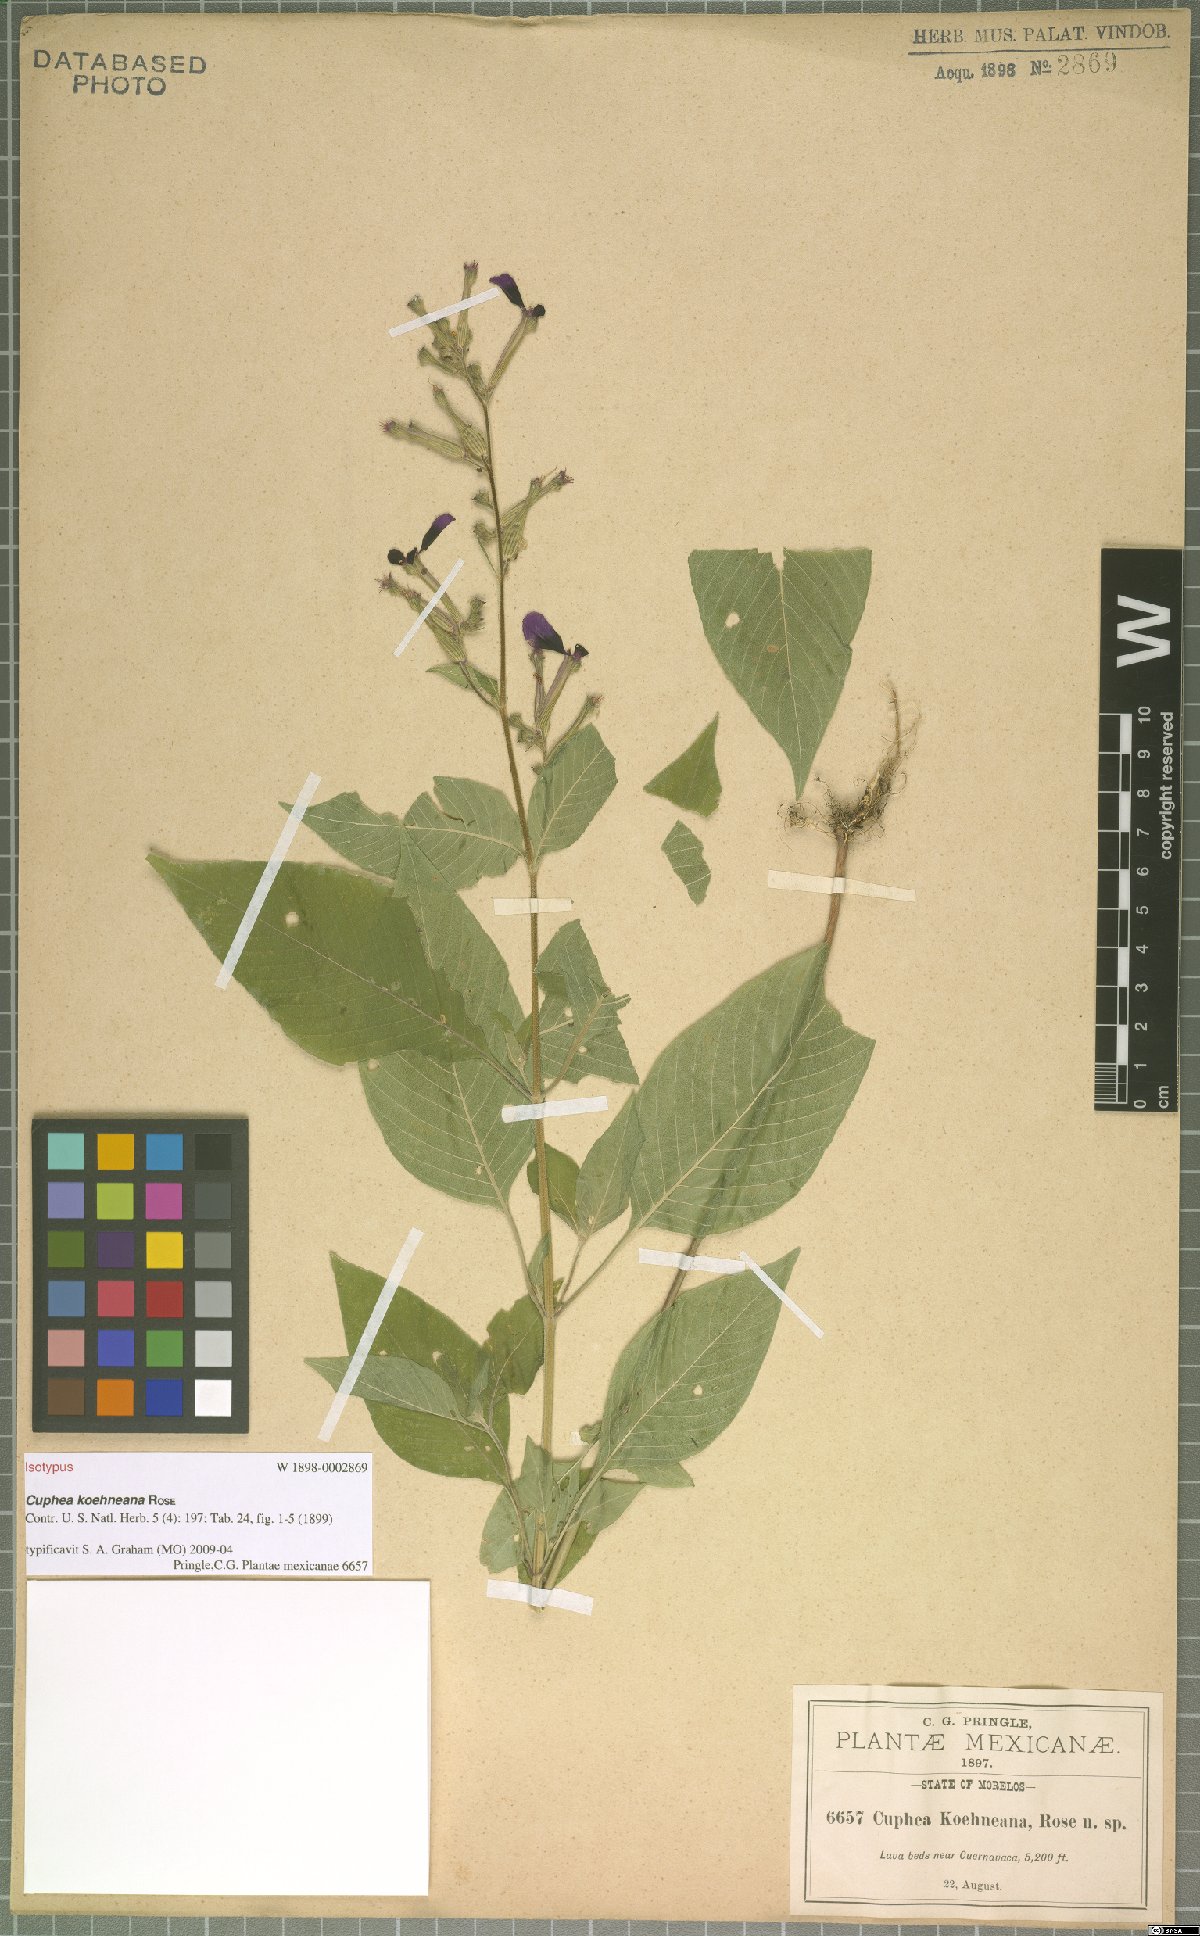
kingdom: Plantae
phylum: Tracheophyta
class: Magnoliopsida
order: Myrtales
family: Lythraceae
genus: Cuphea
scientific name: Cuphea koehneana
